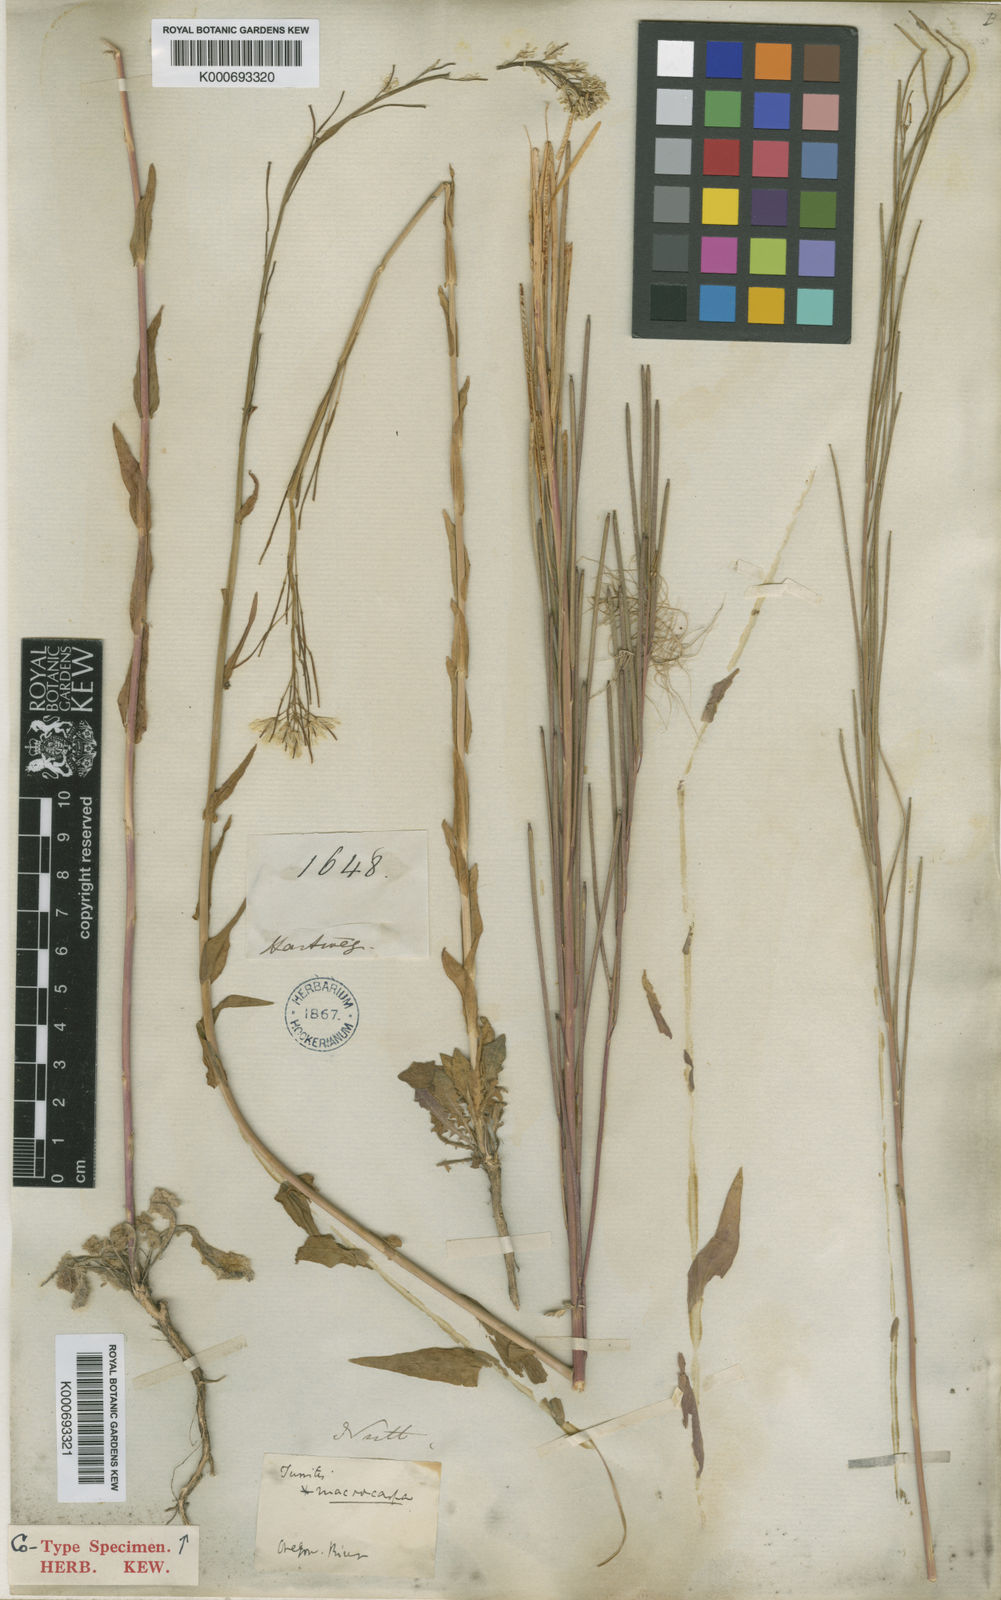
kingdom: Plantae
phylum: Tracheophyta
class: Magnoliopsida
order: Brassicales
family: Brassicaceae
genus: Turritis
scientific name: Turritis glabra
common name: Tower rockcress
